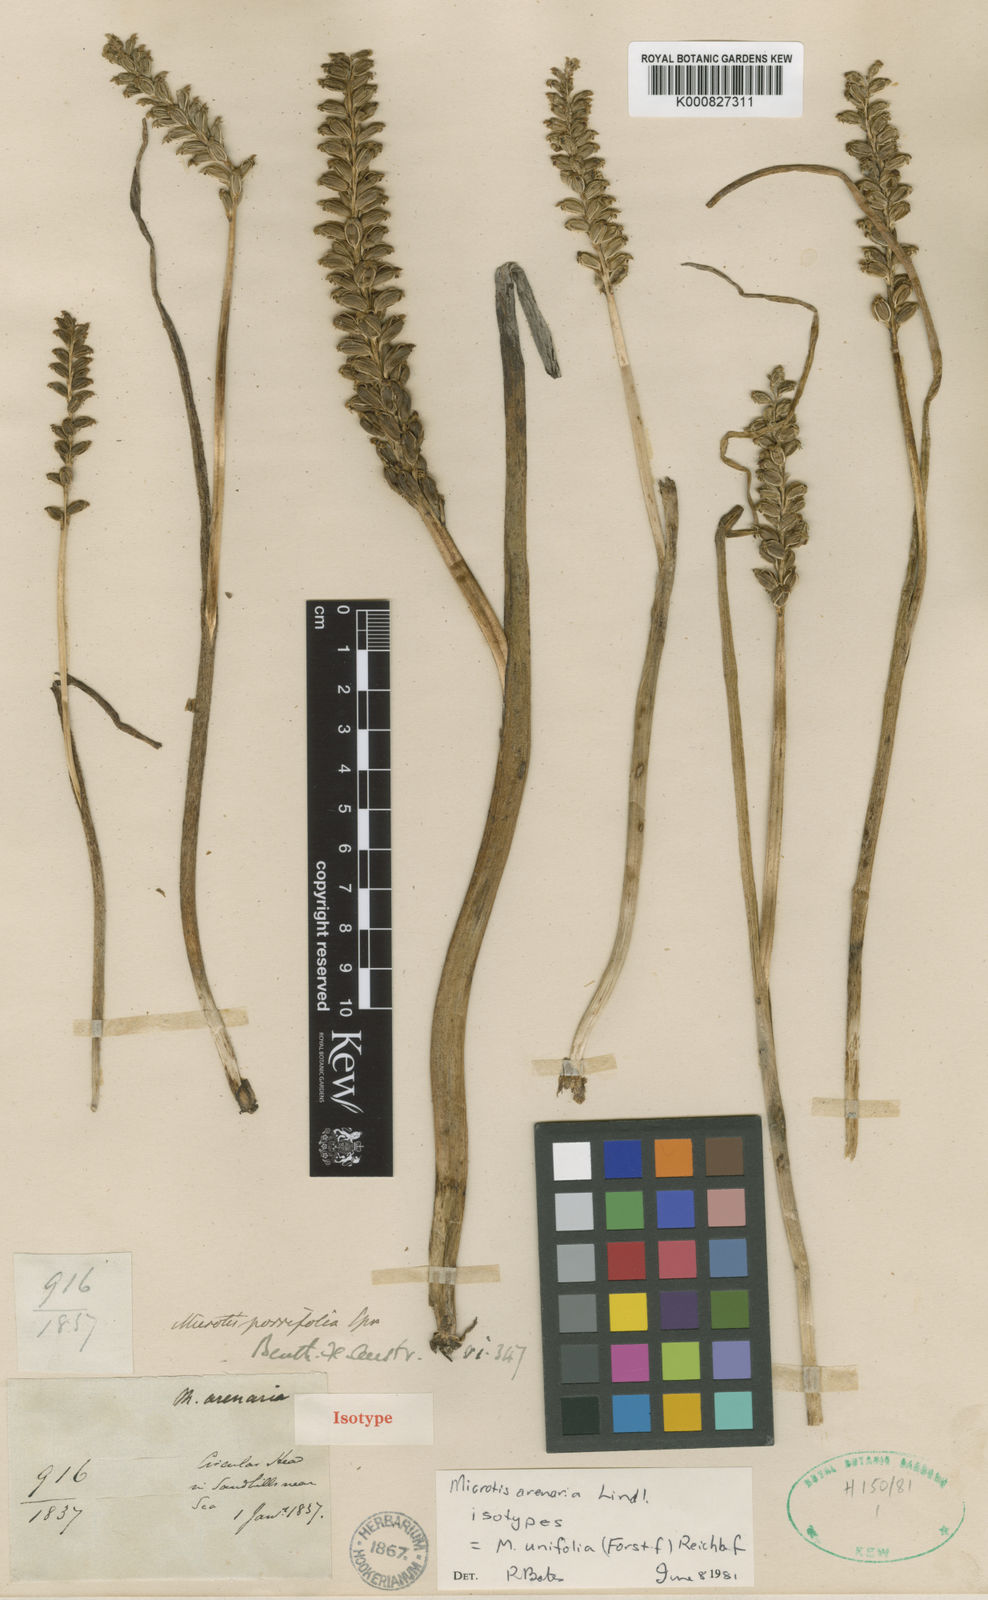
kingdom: Plantae
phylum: Tracheophyta
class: Liliopsida
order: Asparagales
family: Orchidaceae
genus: Microtis
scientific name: Microtis unifolia
